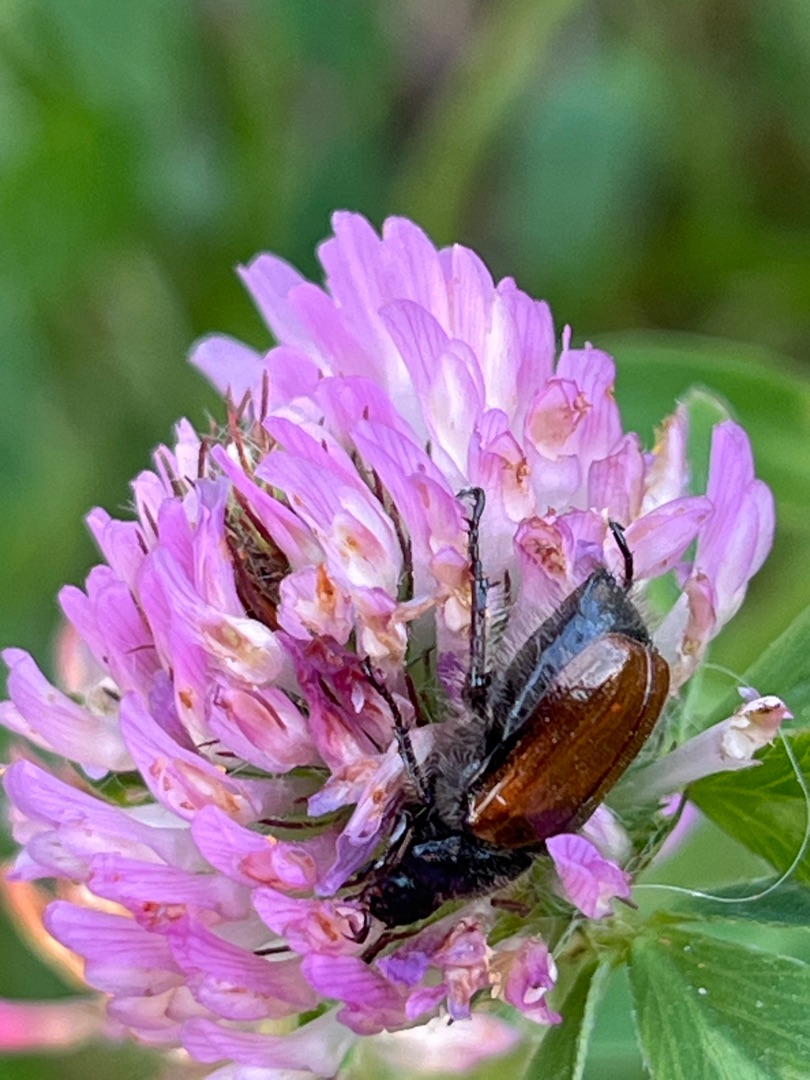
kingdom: Animalia
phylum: Arthropoda
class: Insecta
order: Coleoptera
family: Scarabaeidae
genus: Phyllopertha
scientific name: Phyllopertha horticola
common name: Gåsebille
